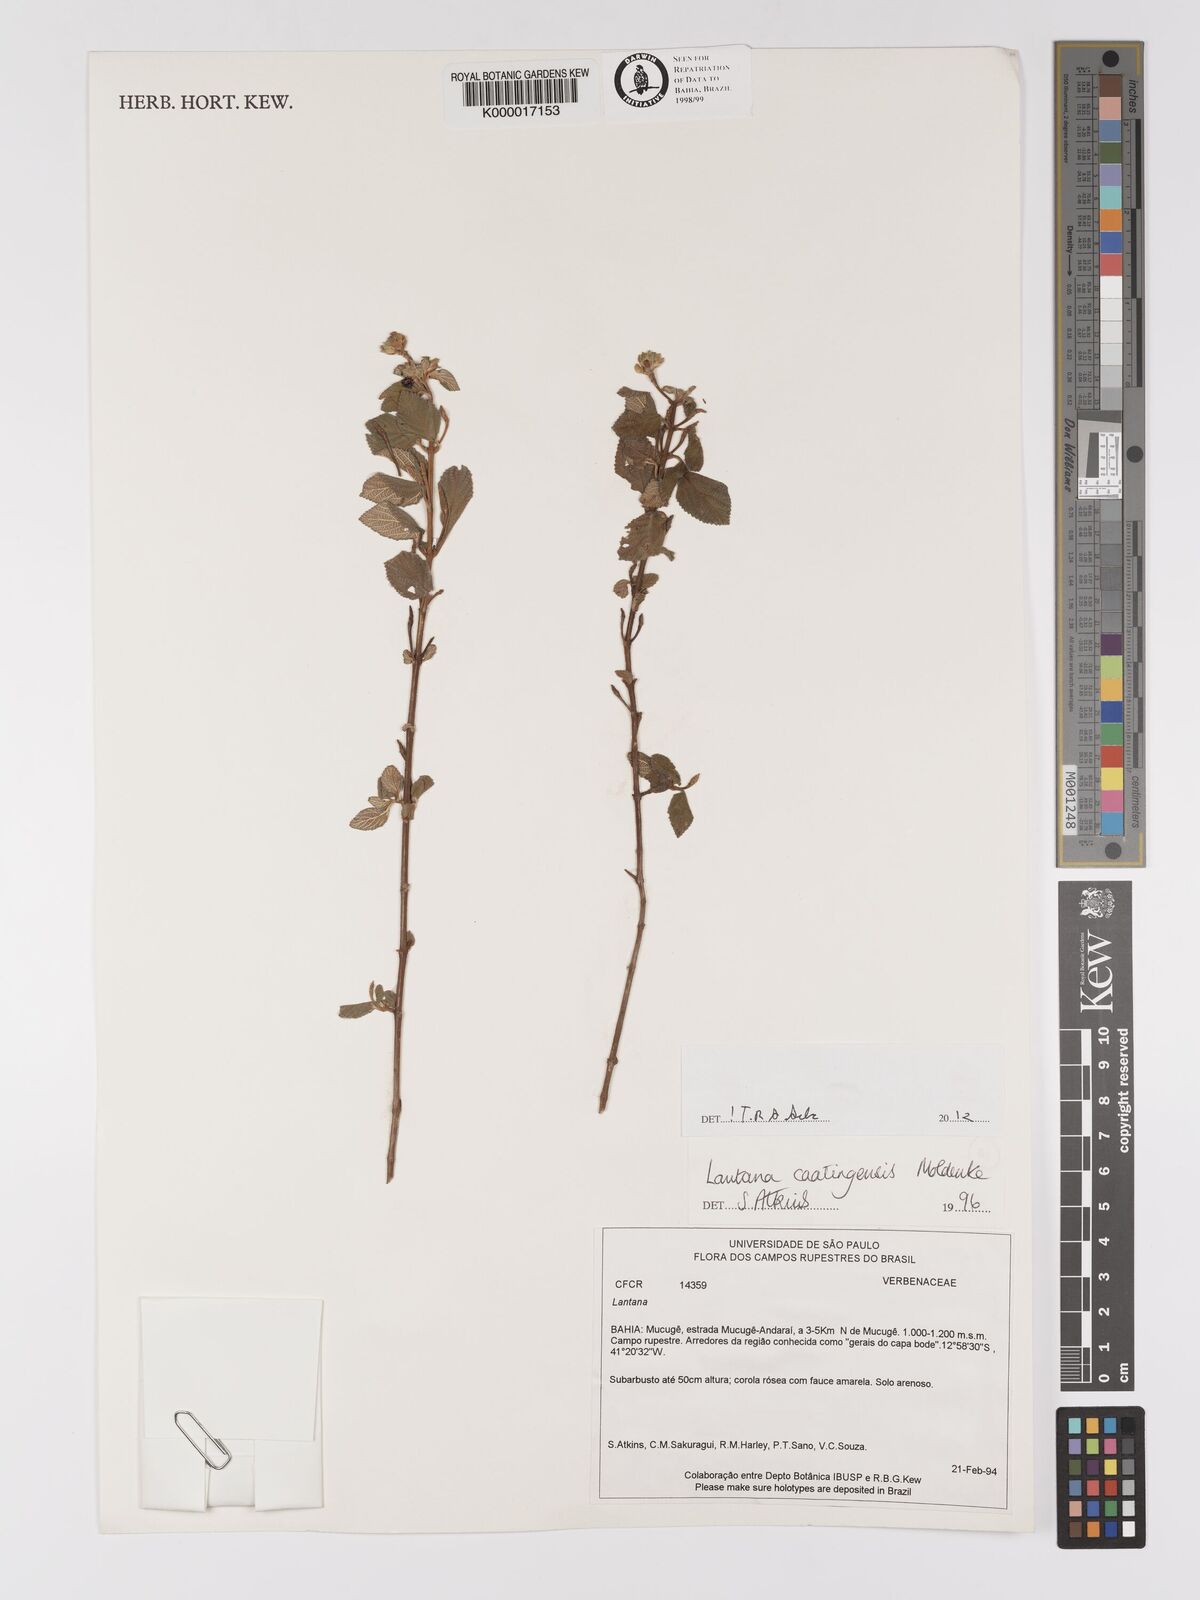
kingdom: Plantae
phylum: Tracheophyta
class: Magnoliopsida
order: Lamiales
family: Verbenaceae
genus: Lantana
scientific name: Lantana caatingensis
